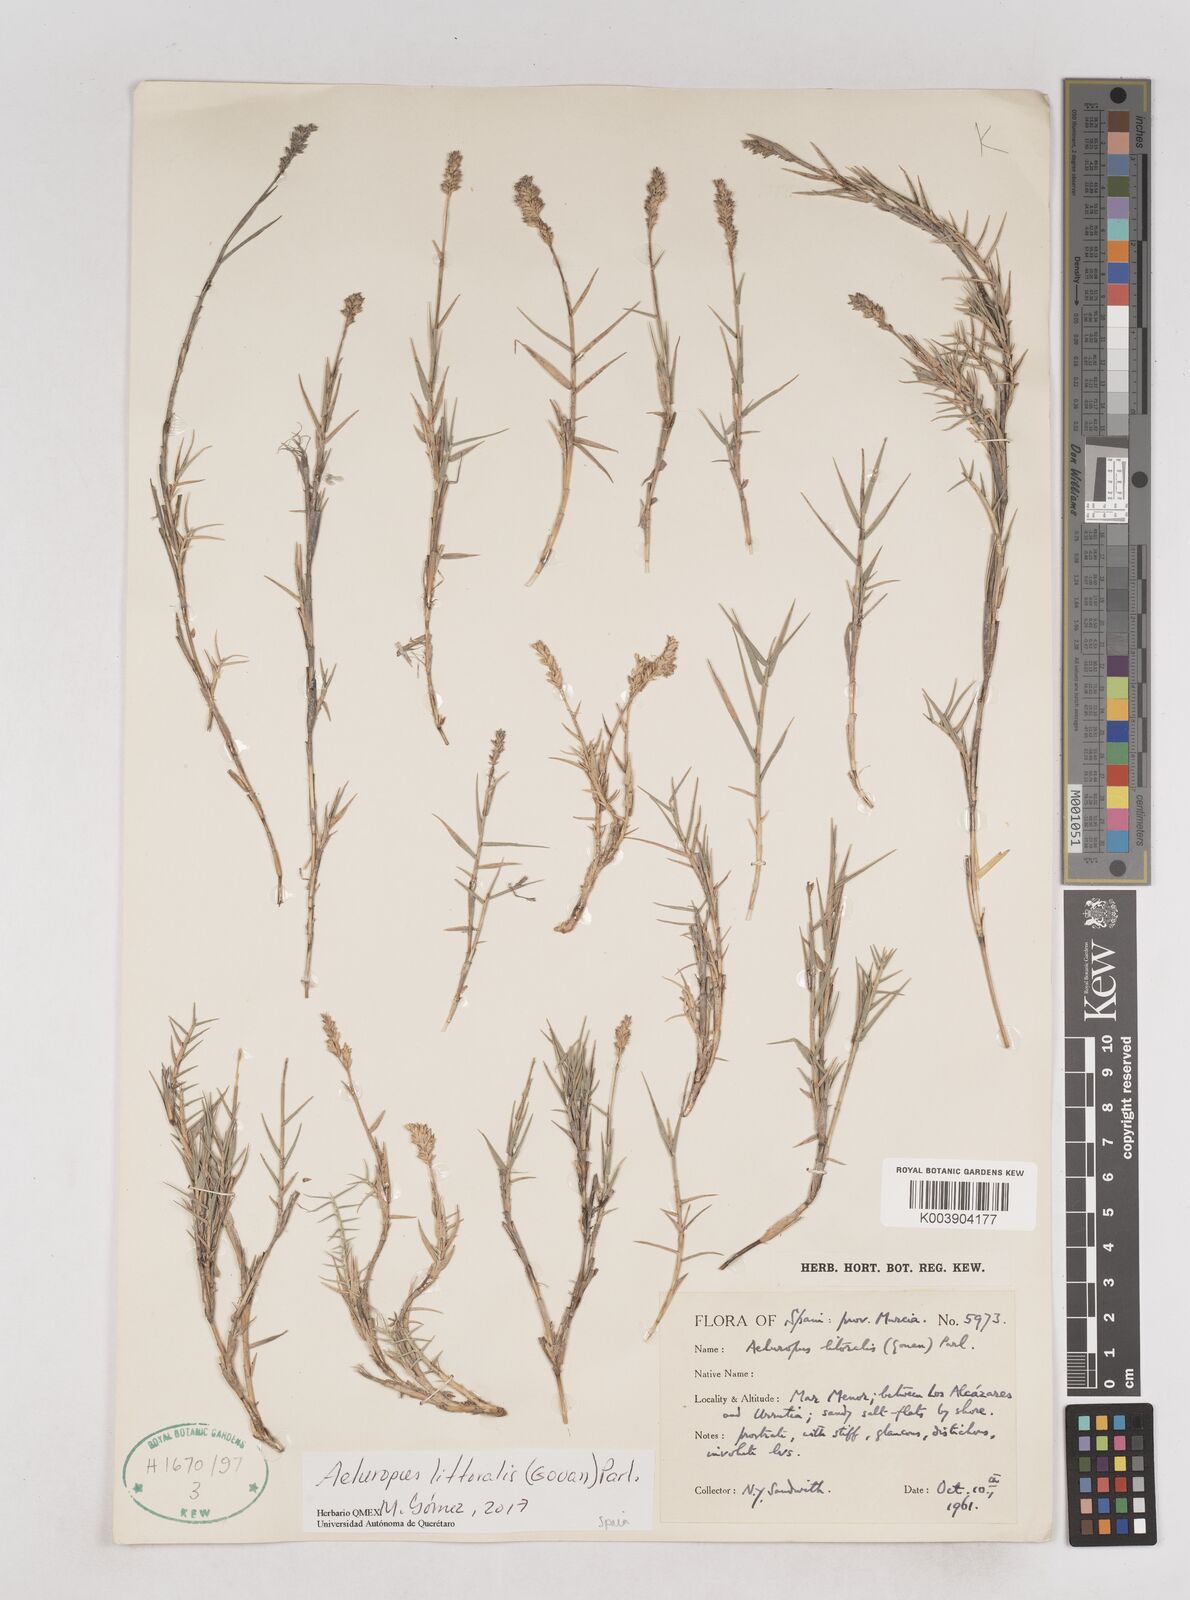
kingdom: Plantae
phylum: Tracheophyta
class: Liliopsida
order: Poales
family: Poaceae
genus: Aeluropus
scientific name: Aeluropus littoralis
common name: Indian walnut
